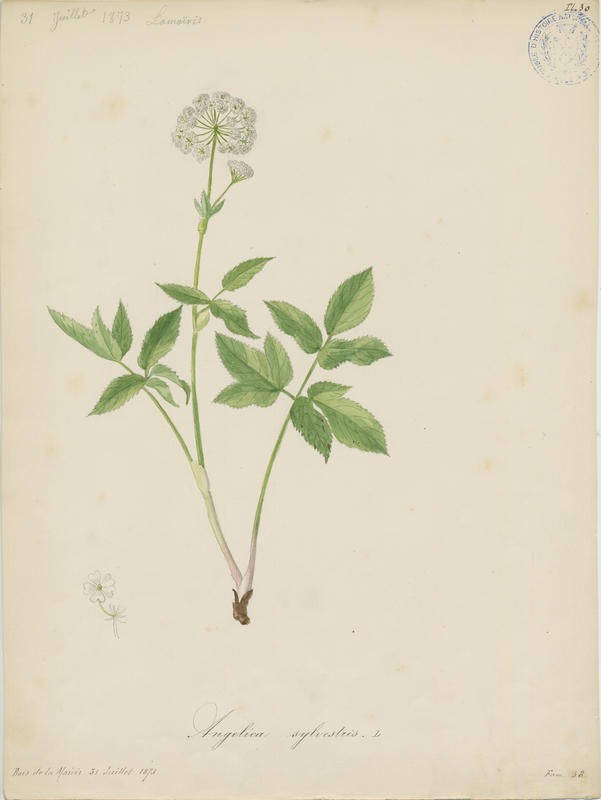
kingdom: Plantae
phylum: Tracheophyta
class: Magnoliopsida
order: Apiales
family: Apiaceae
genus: Angelica
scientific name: Angelica sylvestris
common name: Wild angelica
